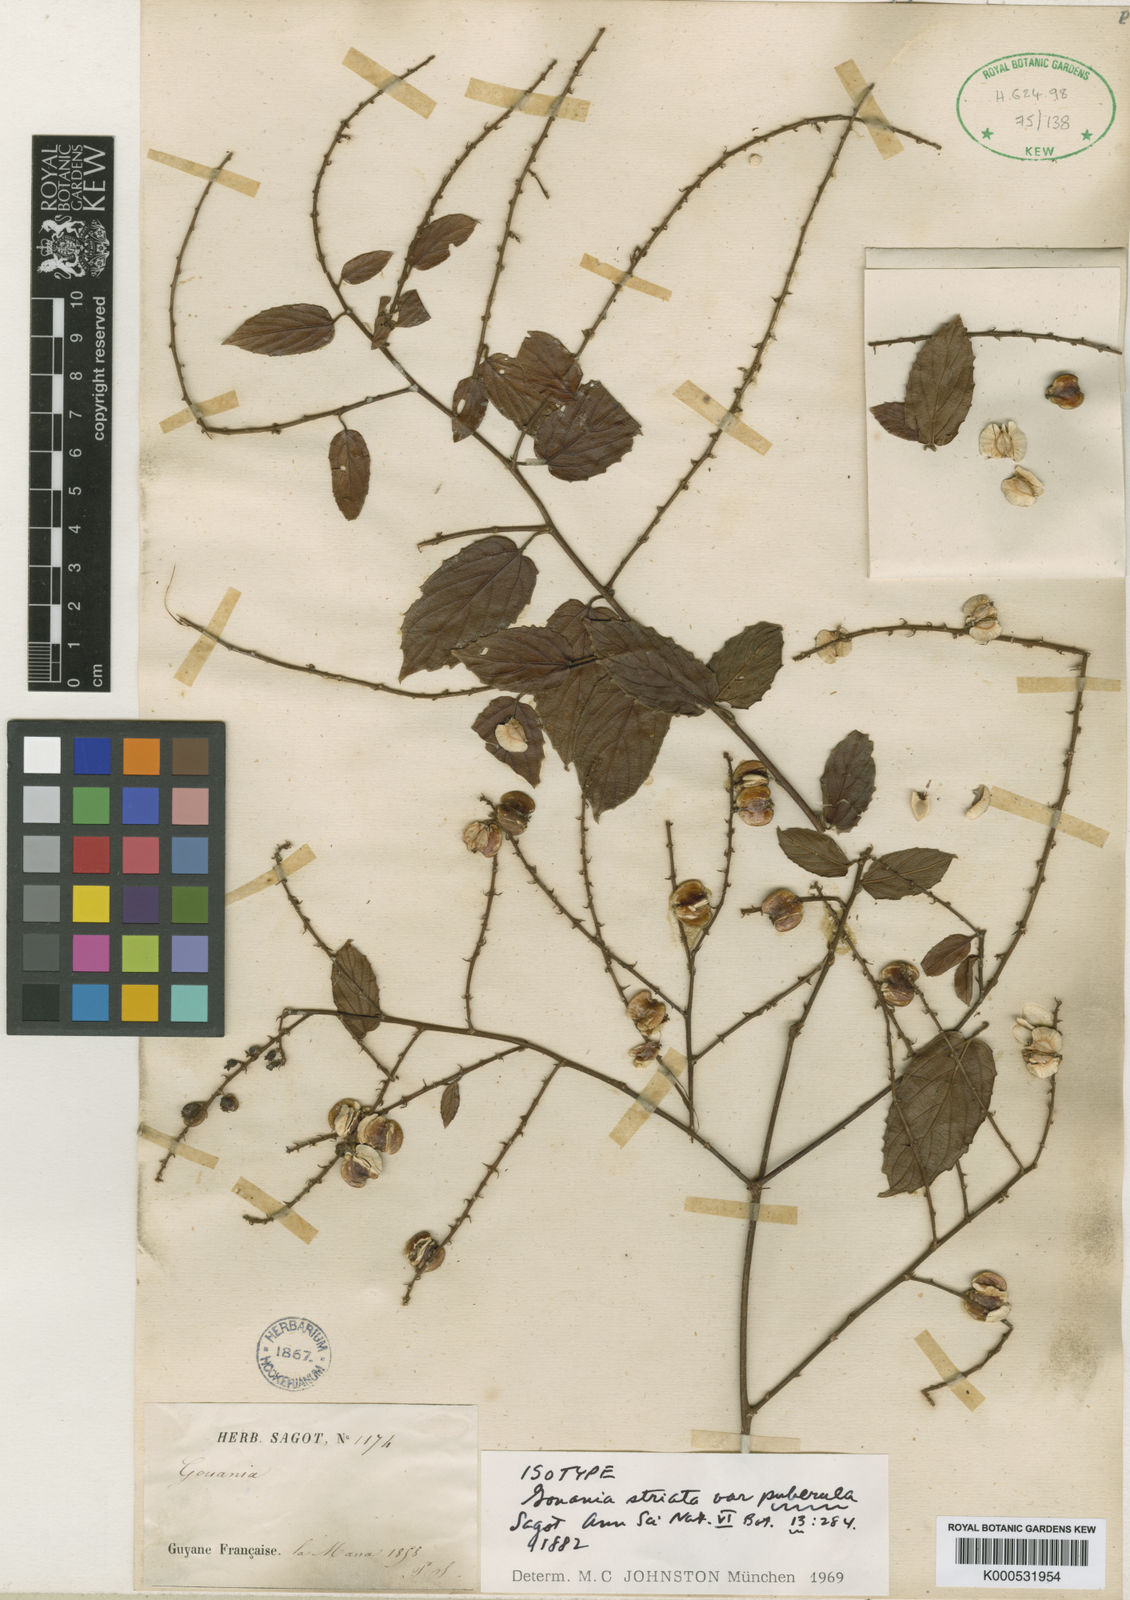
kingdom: Plantae
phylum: Tracheophyta
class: Magnoliopsida
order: Rosales
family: Rhamnaceae
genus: Gouania
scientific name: Gouania striata
